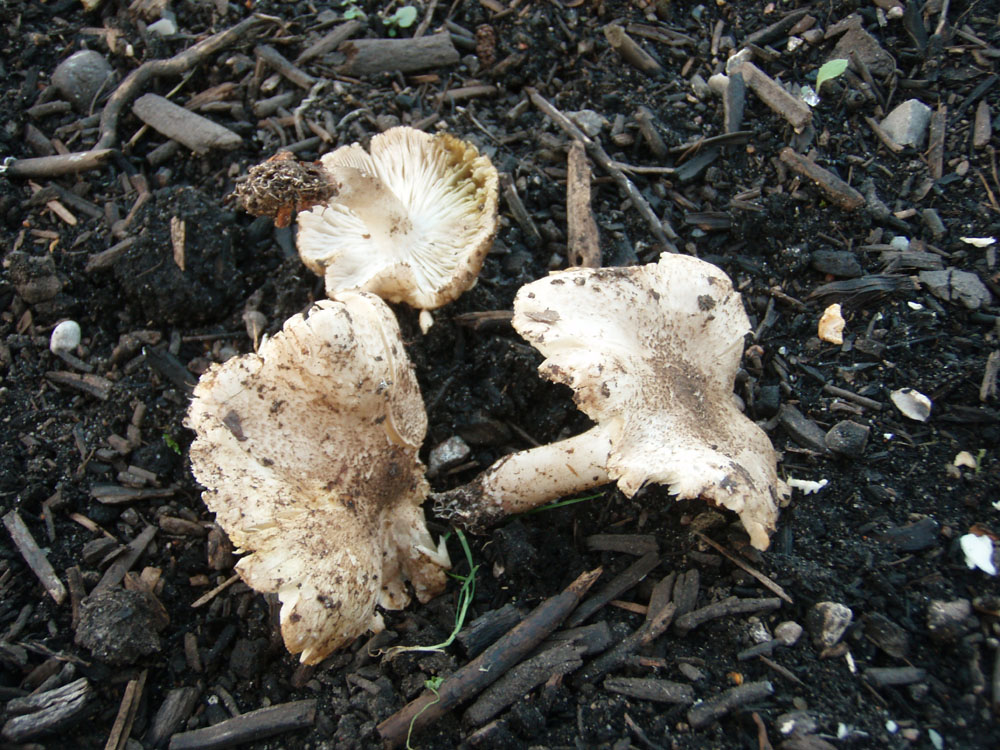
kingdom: Fungi
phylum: Basidiomycota
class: Agaricomycetes
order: Agaricales
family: Tricholomataceae
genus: Tricholoma
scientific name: Tricholoma scalpturatum
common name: gulplettet ridderhat
